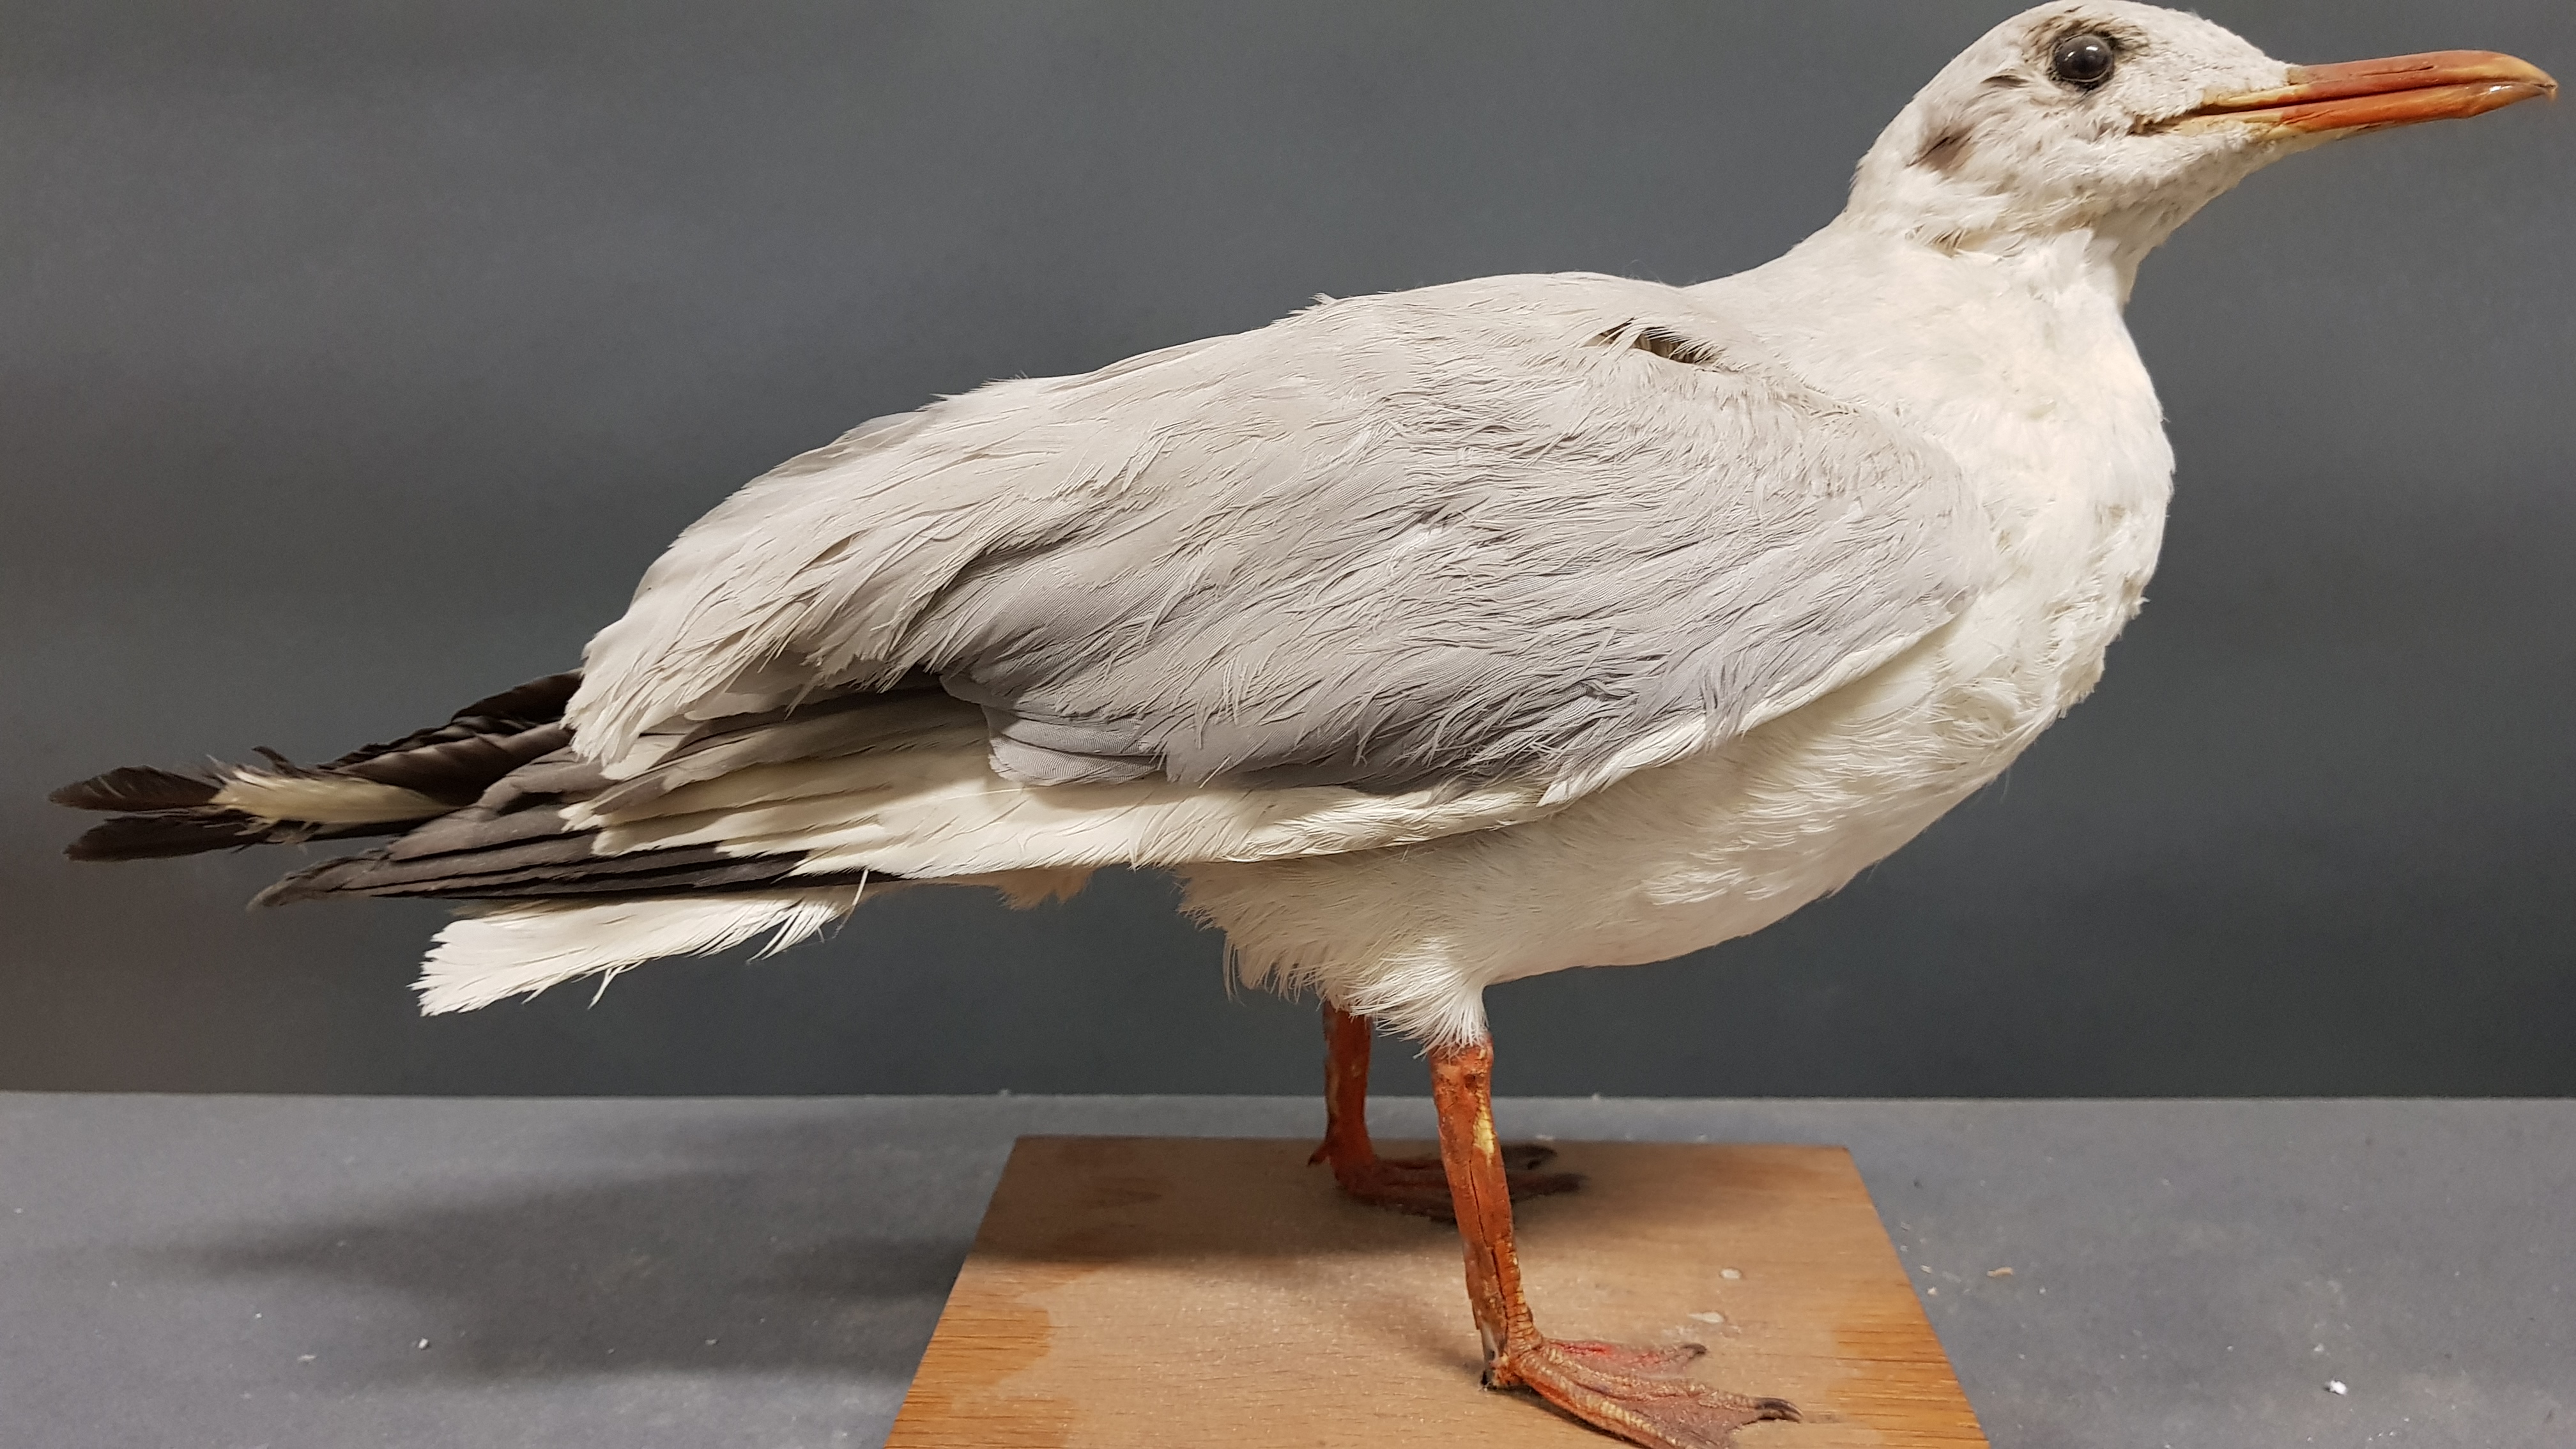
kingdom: Animalia
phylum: Chordata
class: Aves
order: Charadriiformes
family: Laridae
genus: Chroicocephalus
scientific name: Chroicocephalus brunnicephalus
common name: Brown-headed gull
